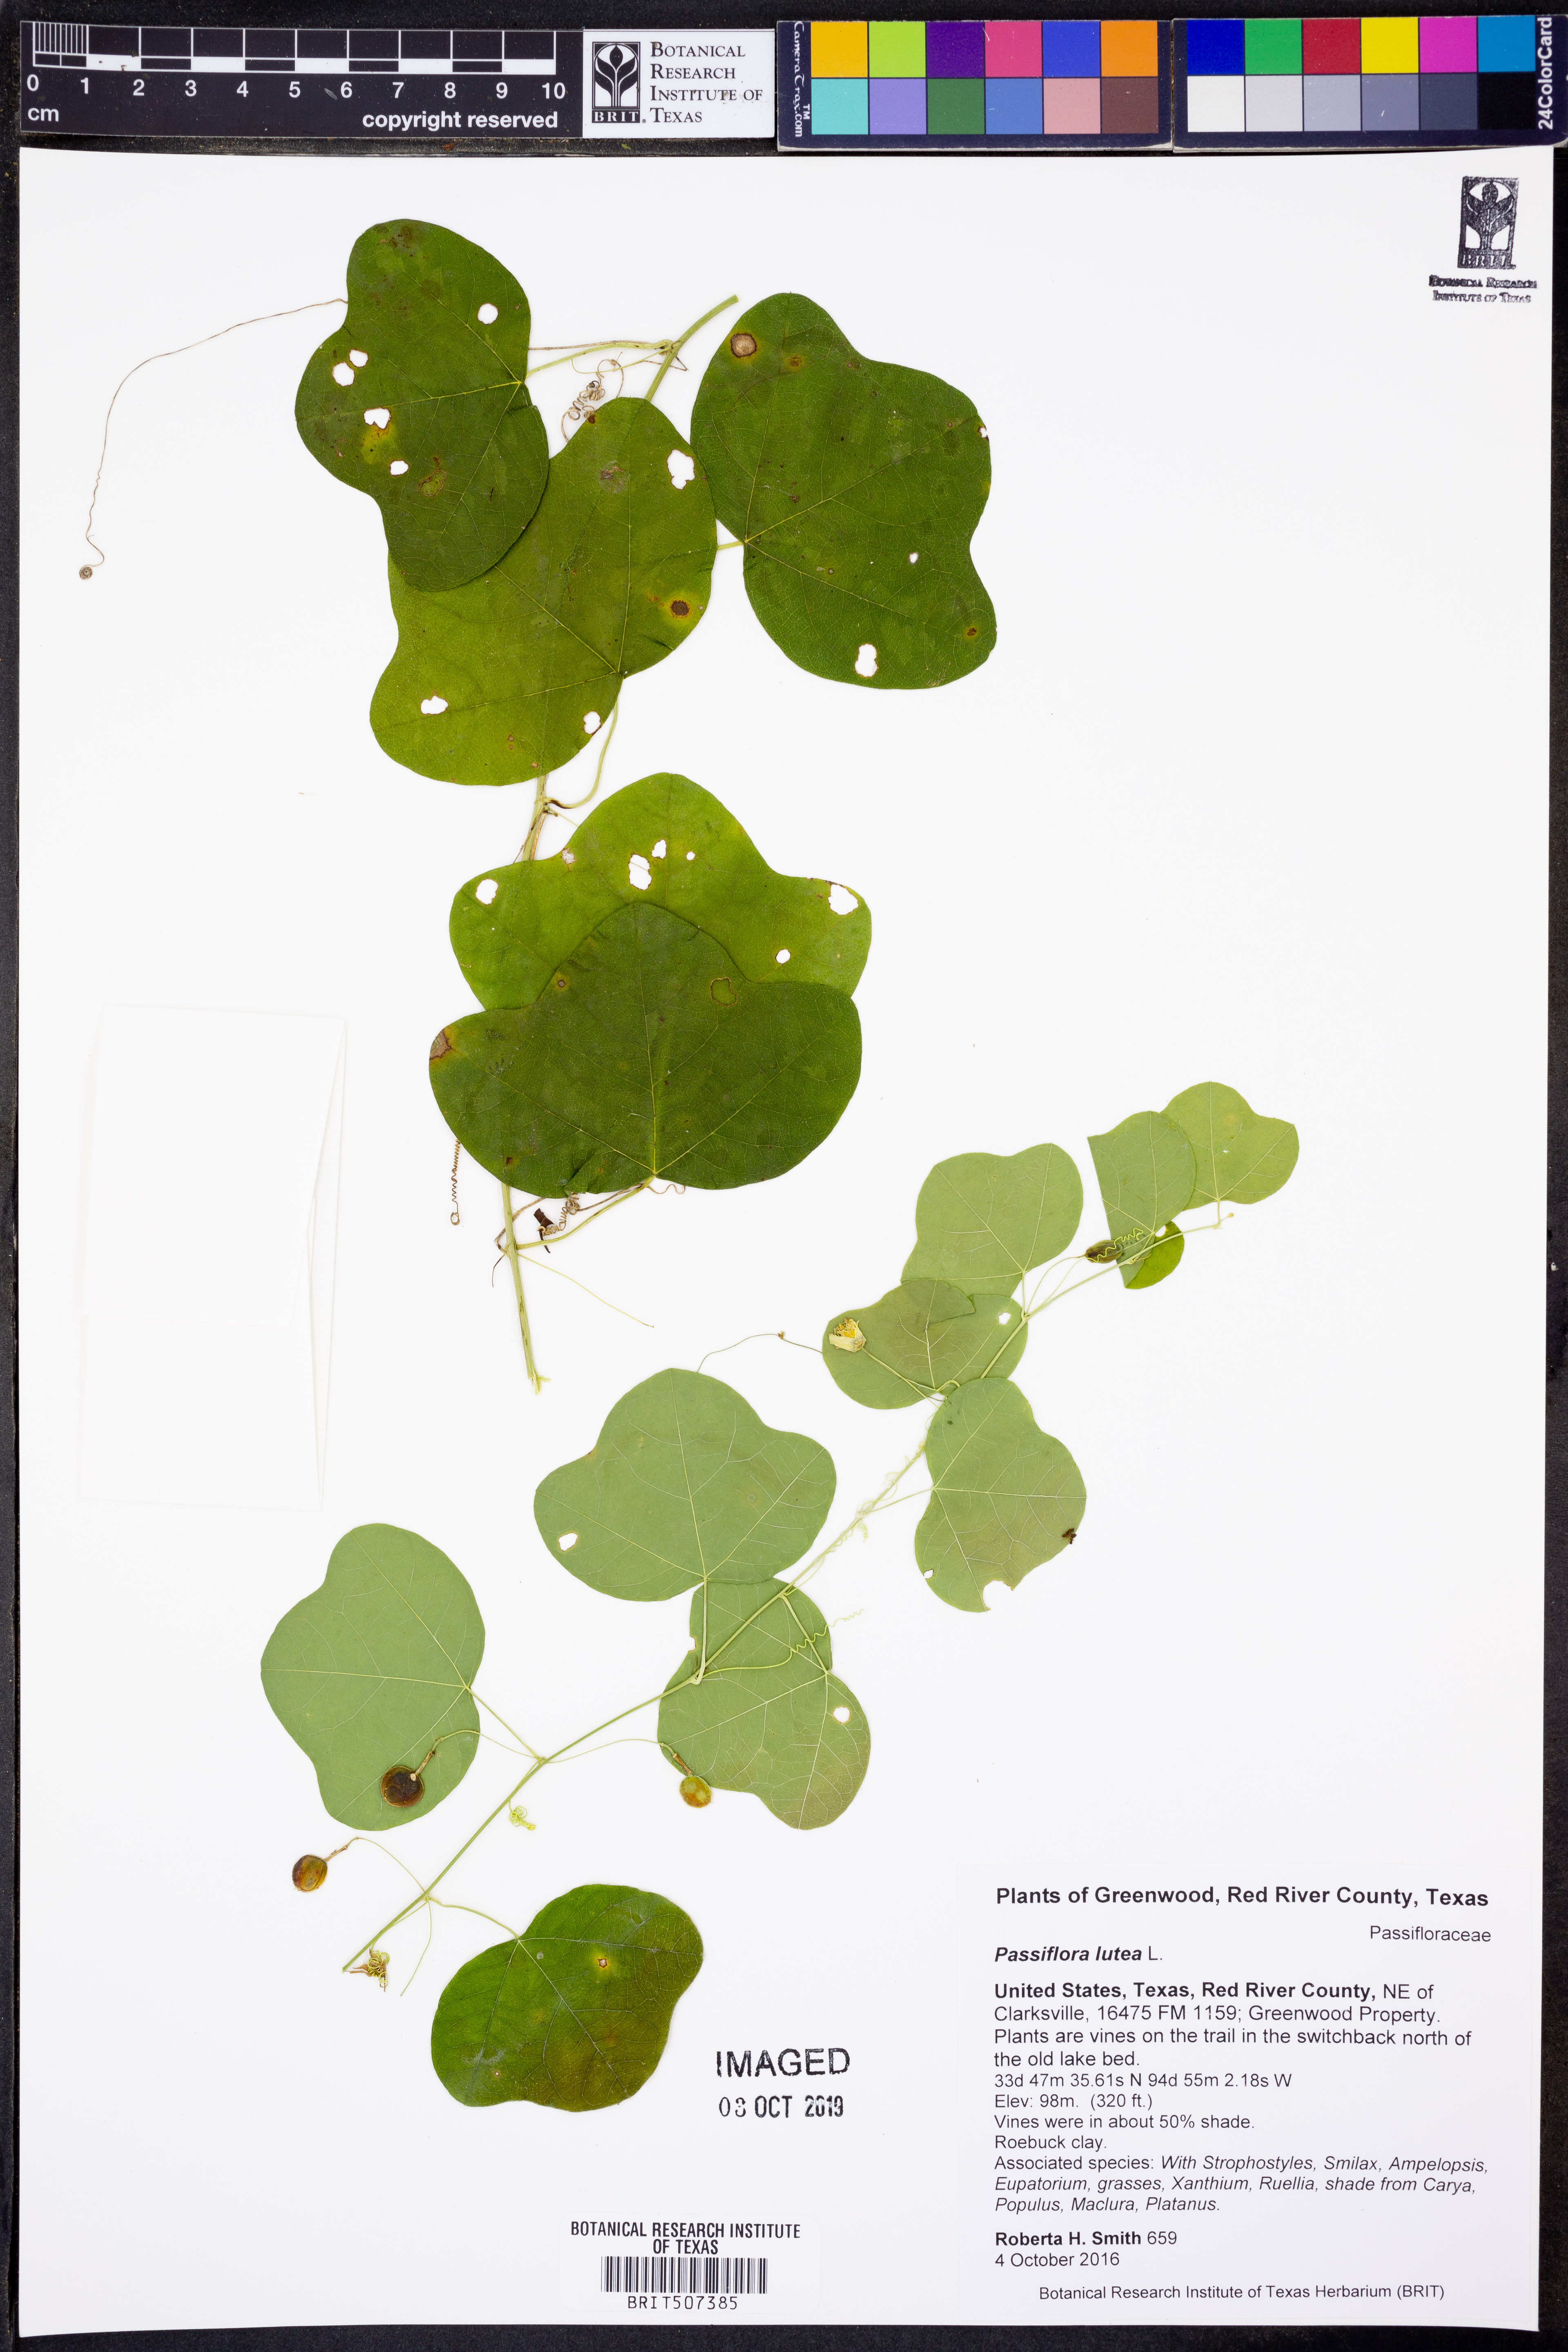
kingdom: Plantae
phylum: Tracheophyta
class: Magnoliopsida
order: Malpighiales
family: Passifloraceae
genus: Passiflora
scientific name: Passiflora lutea
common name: Yellow passionflower
